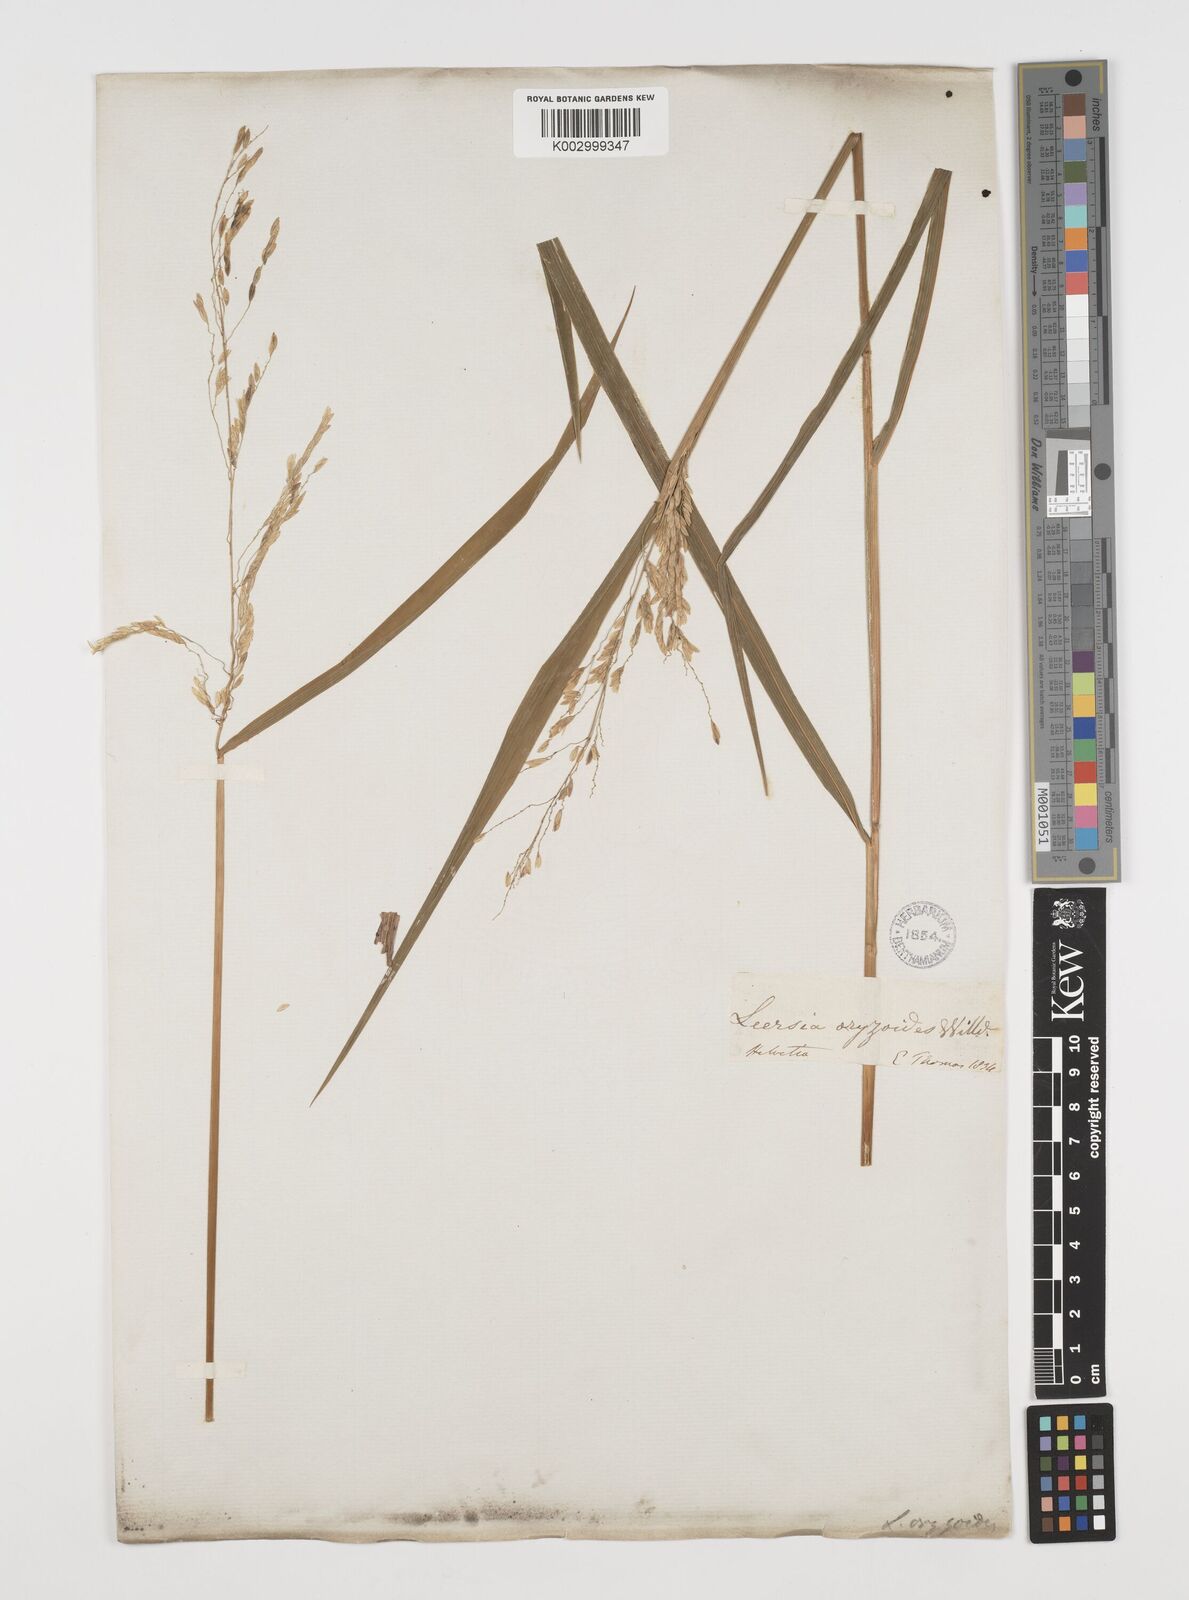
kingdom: Plantae
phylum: Tracheophyta
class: Liliopsida
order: Poales
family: Poaceae
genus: Leersia
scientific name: Leersia oryzoides
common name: Cut-grass
